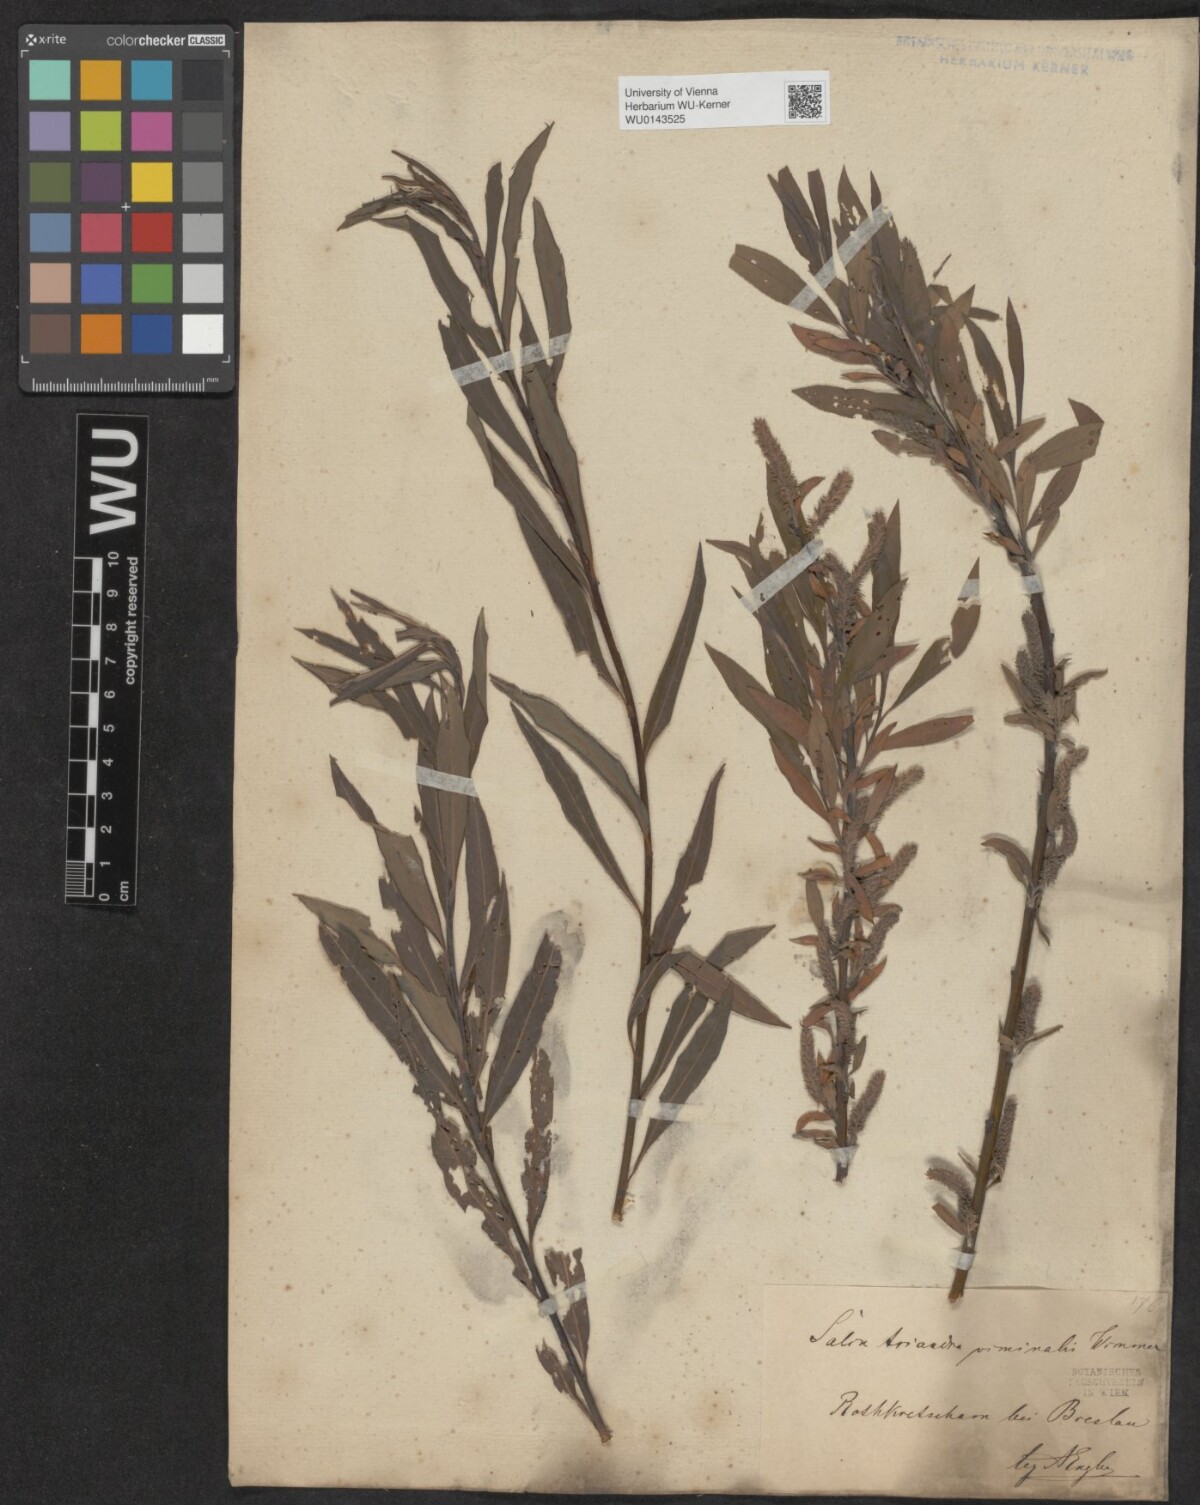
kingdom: Plantae
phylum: Tracheophyta
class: Magnoliopsida
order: Malpighiales
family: Salicaceae
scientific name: Salicaceae
